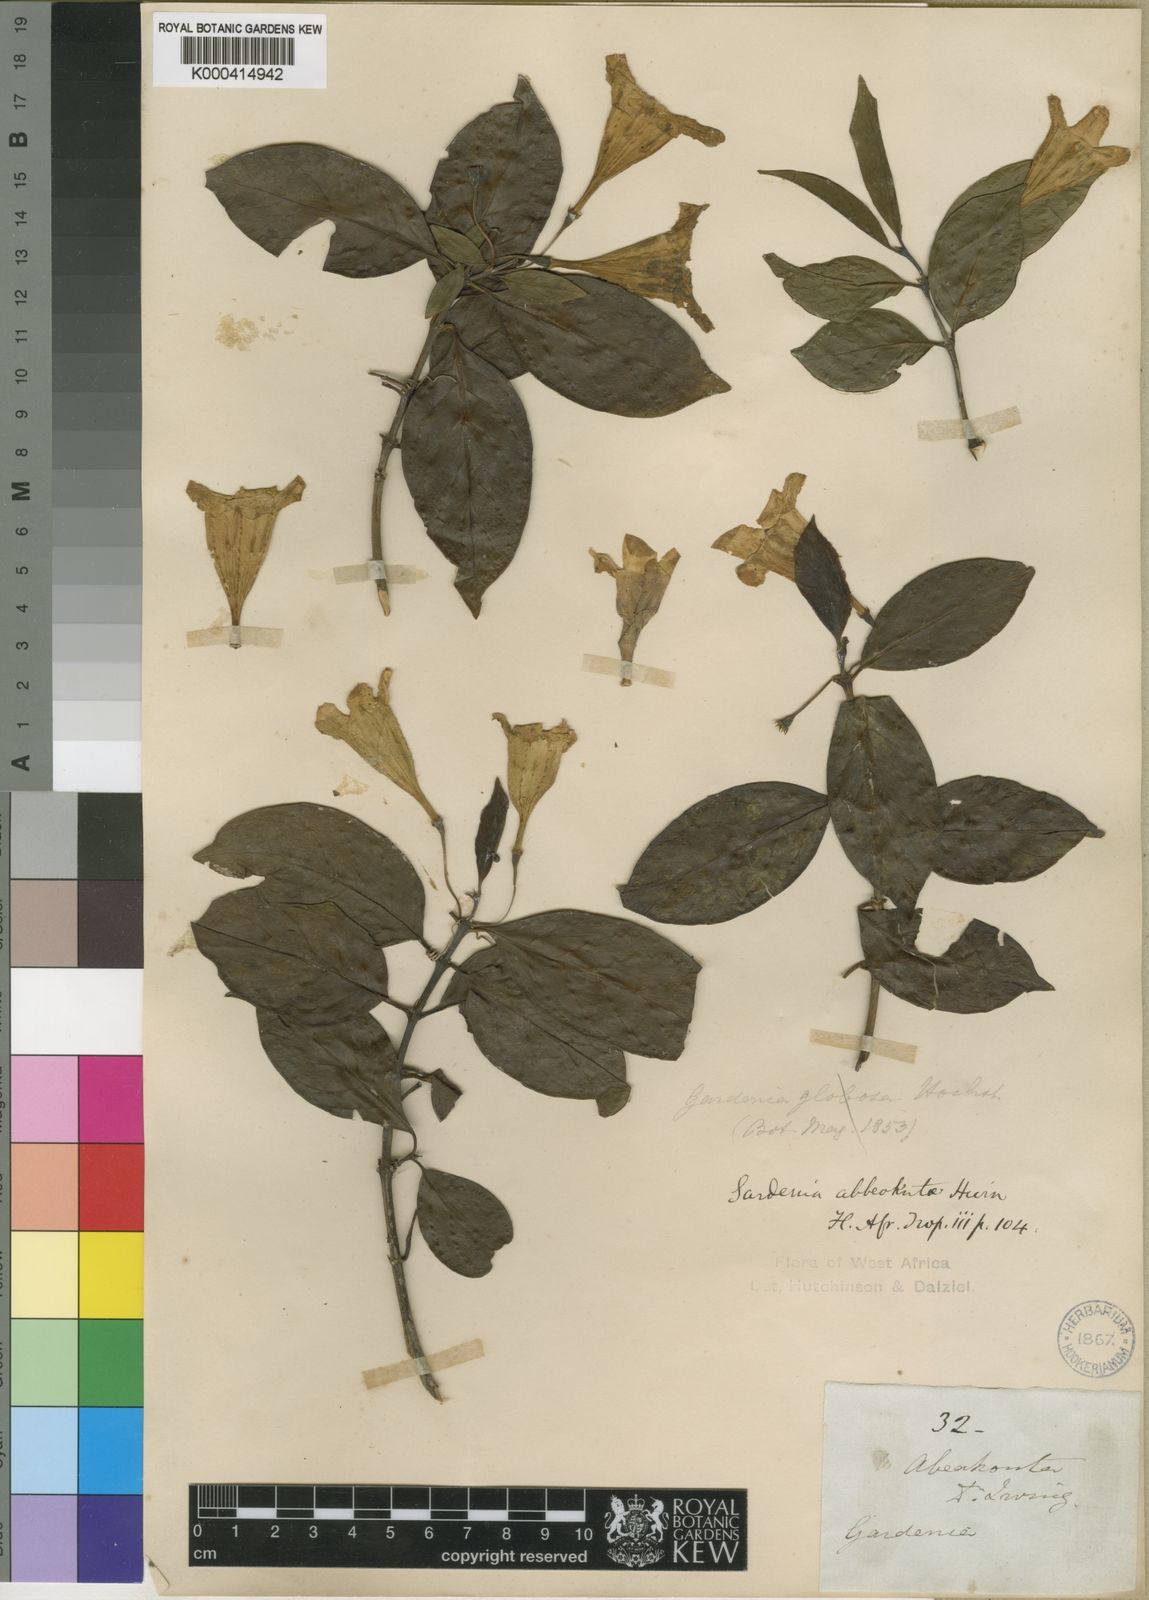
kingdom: Plantae
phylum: Tracheophyta
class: Magnoliopsida
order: Gentianales
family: Rubiaceae
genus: Didymosalpinx
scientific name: Didymosalpinx abbeokutae
